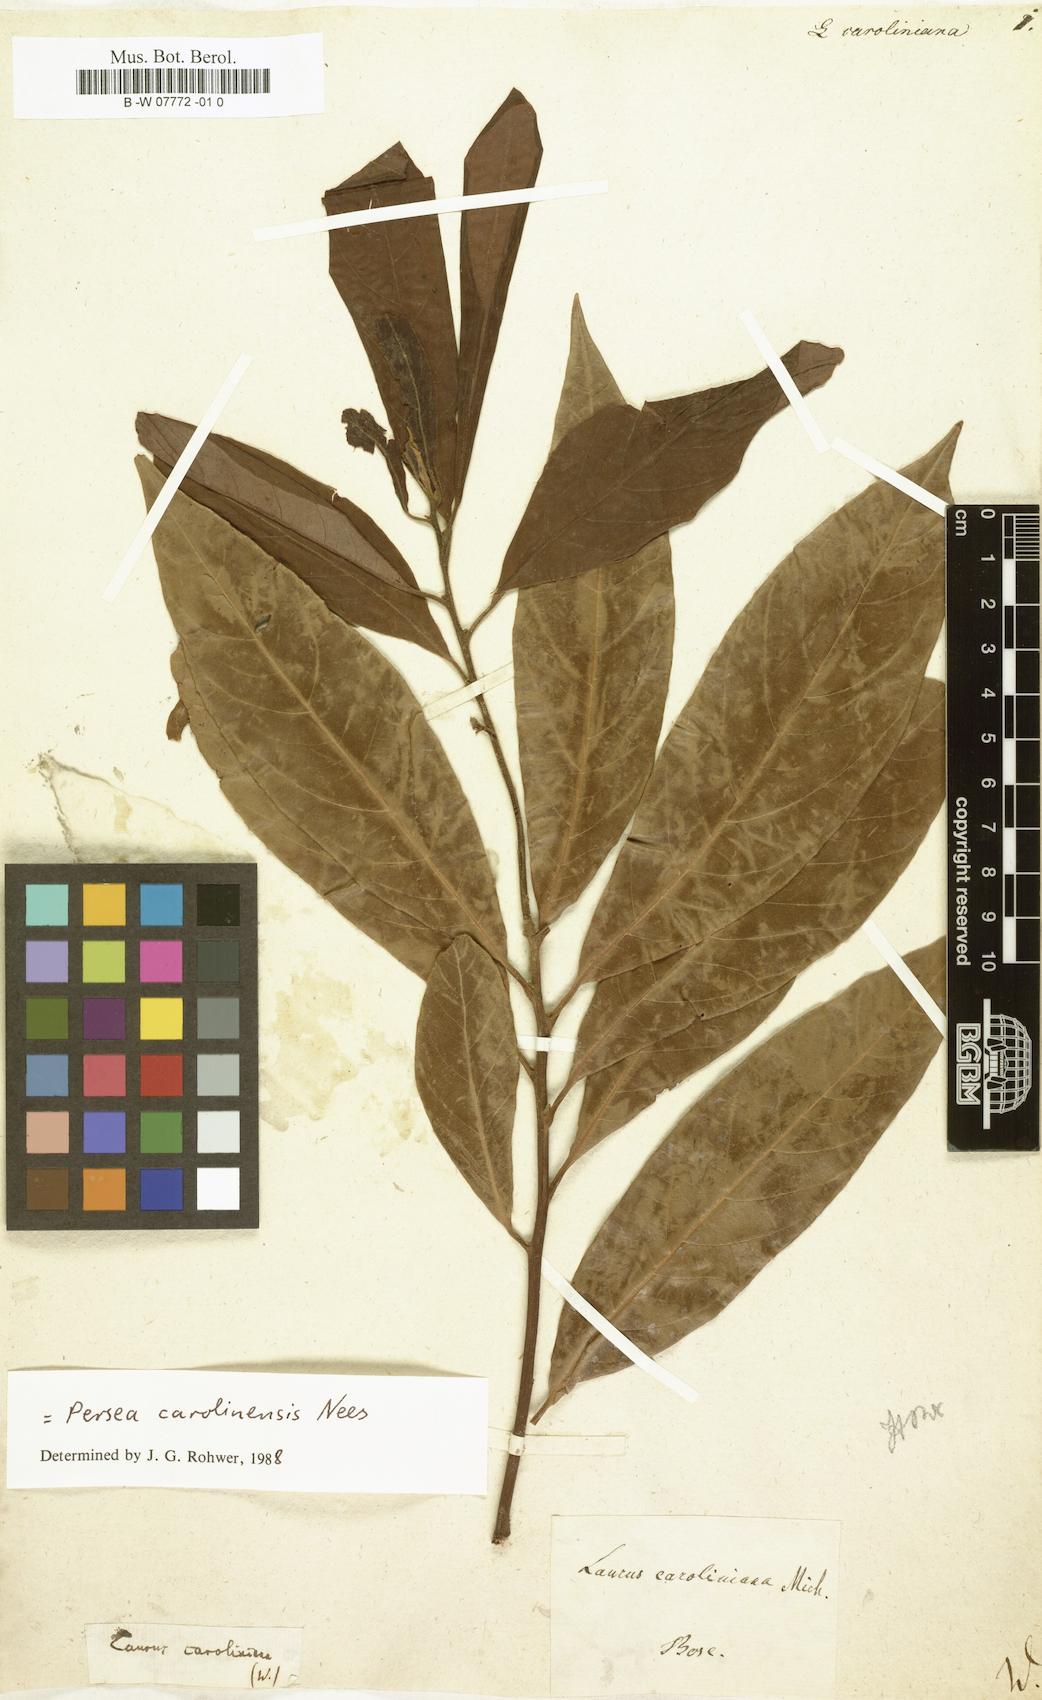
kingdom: Plantae
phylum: Tracheophyta
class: Magnoliopsida
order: Laurales
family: Lauraceae
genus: Laurus
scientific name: Laurus
